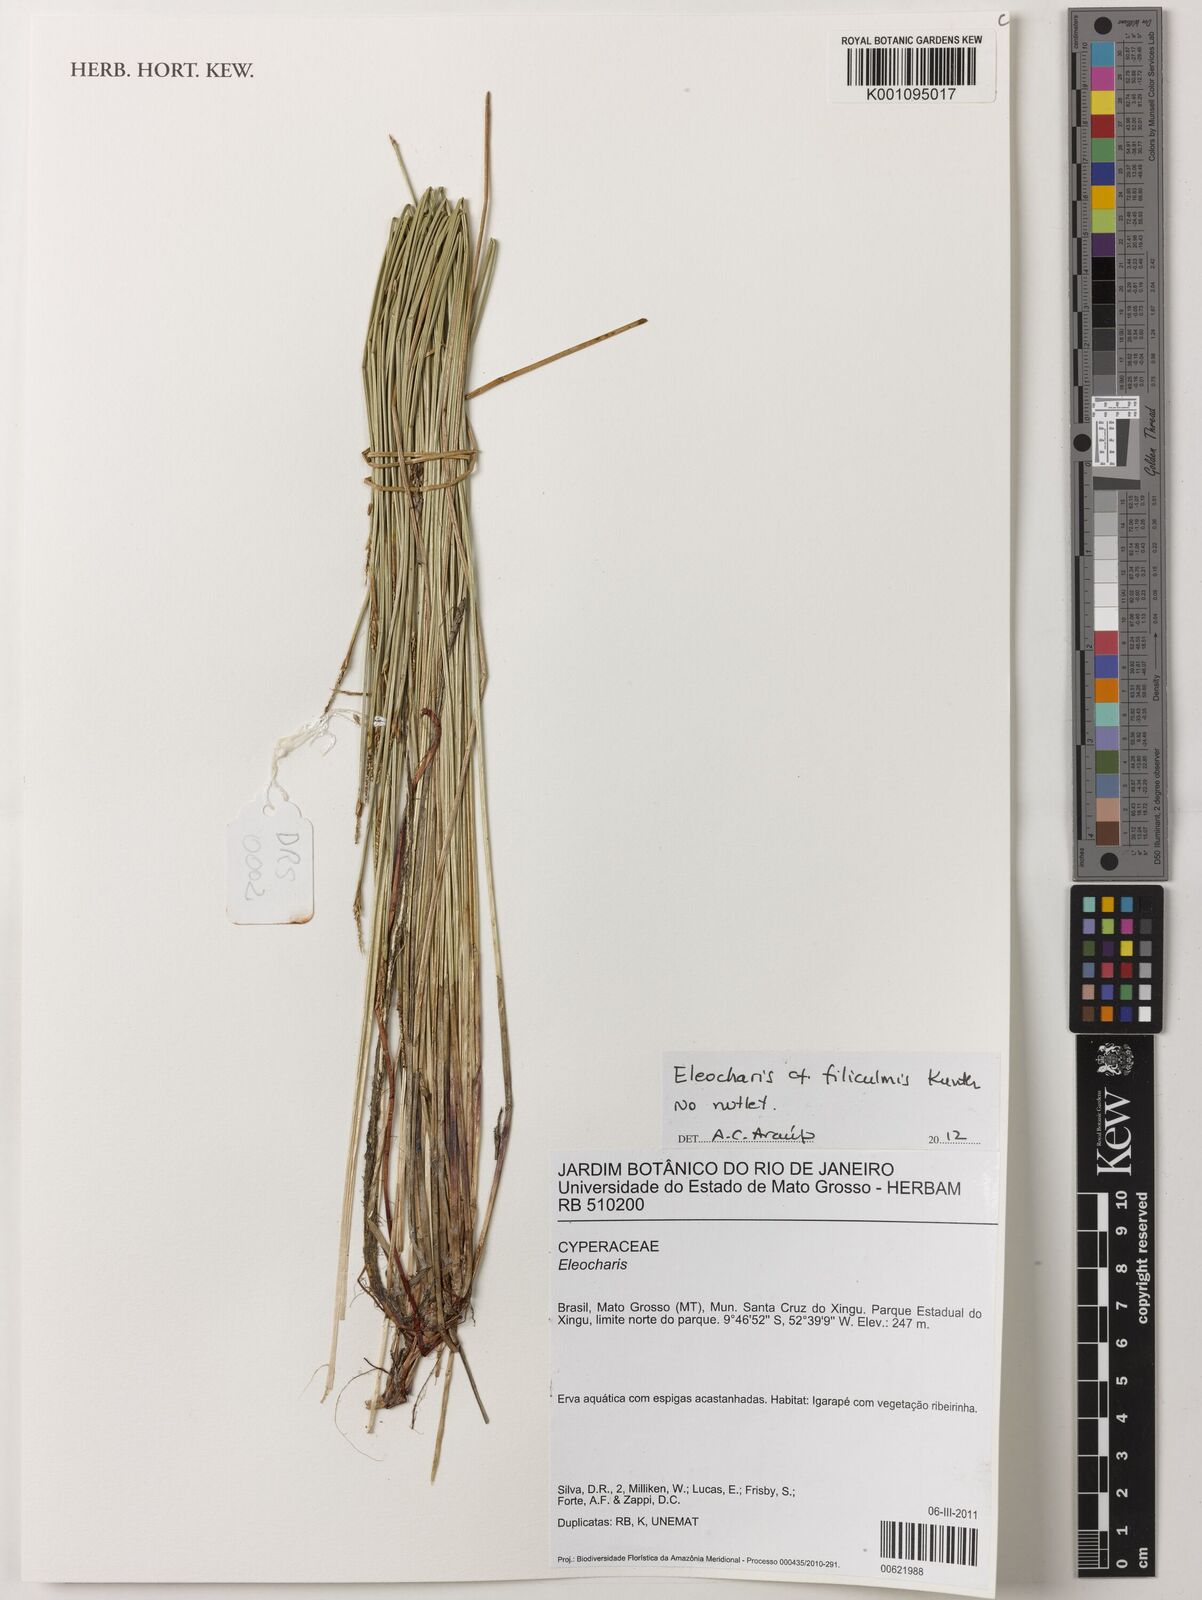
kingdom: Plantae
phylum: Tracheophyta
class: Liliopsida
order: Poales
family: Cyperaceae
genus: Eleocharis
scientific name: Eleocharis filiculmis
